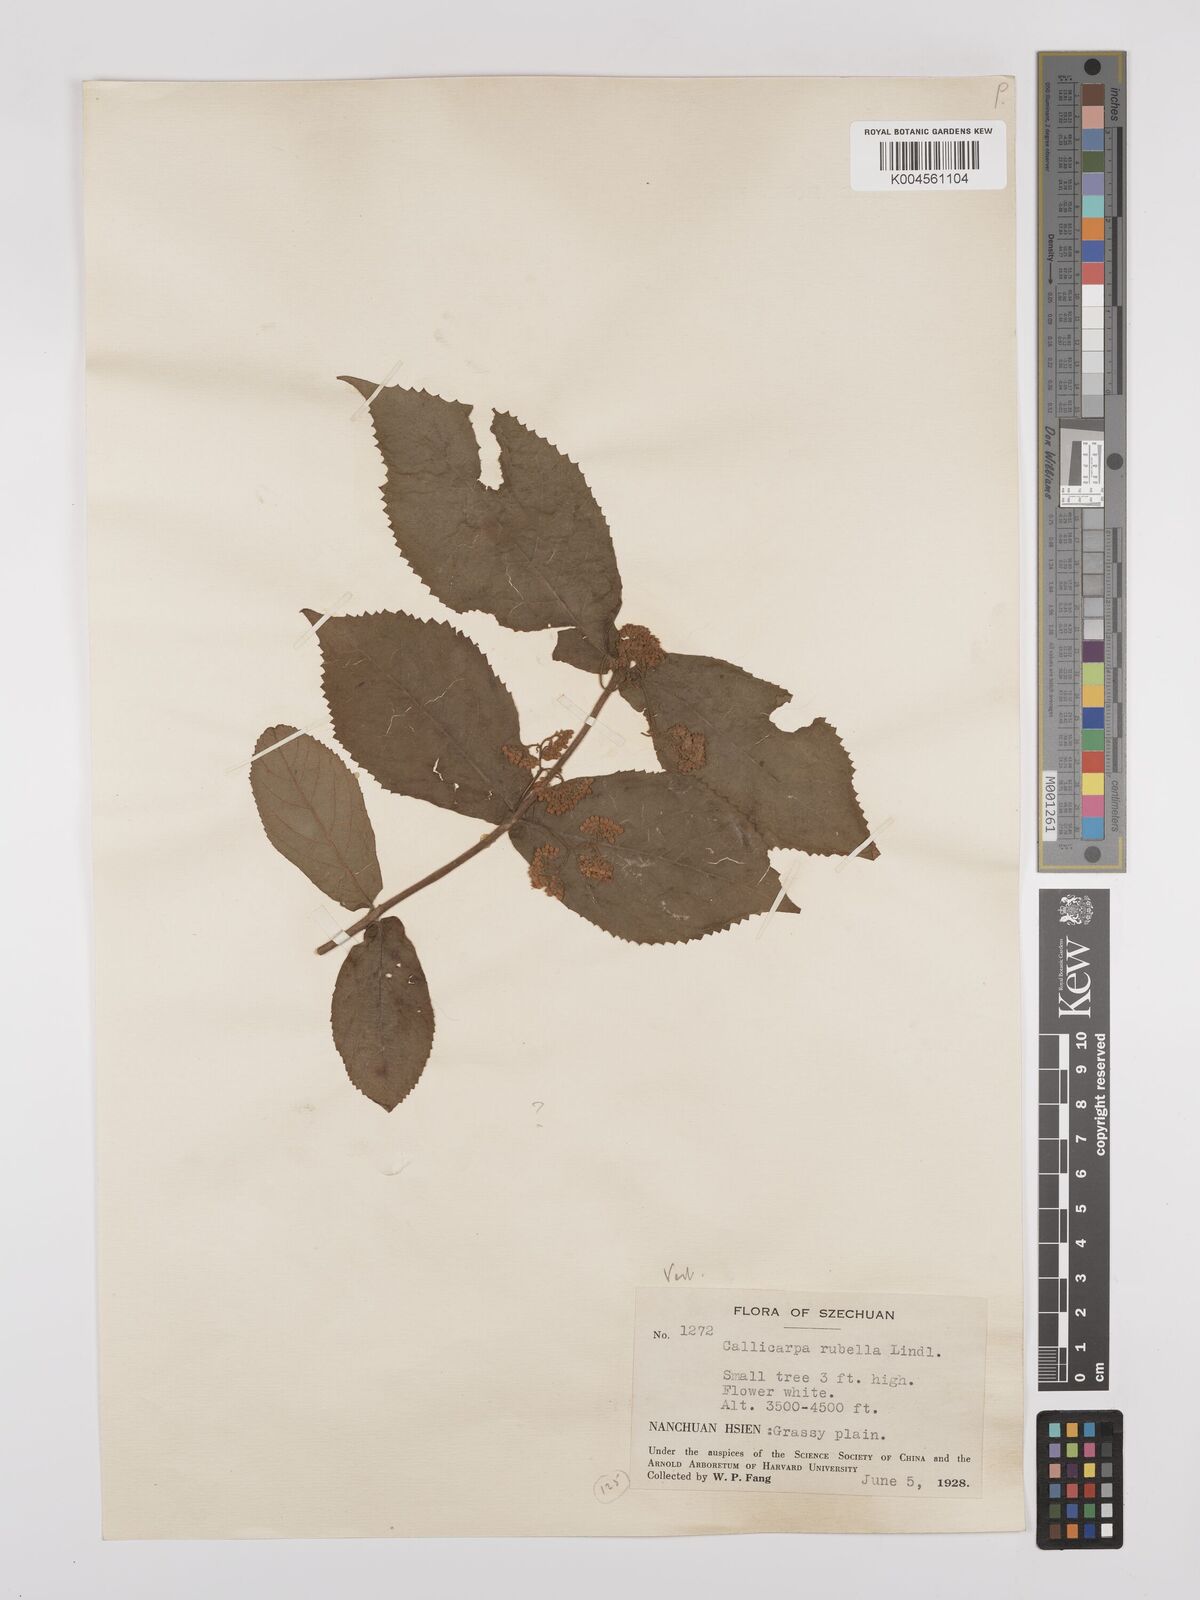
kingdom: Plantae
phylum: Tracheophyta
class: Magnoliopsida
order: Lamiales
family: Lamiaceae
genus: Callicarpa
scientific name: Callicarpa rubella
